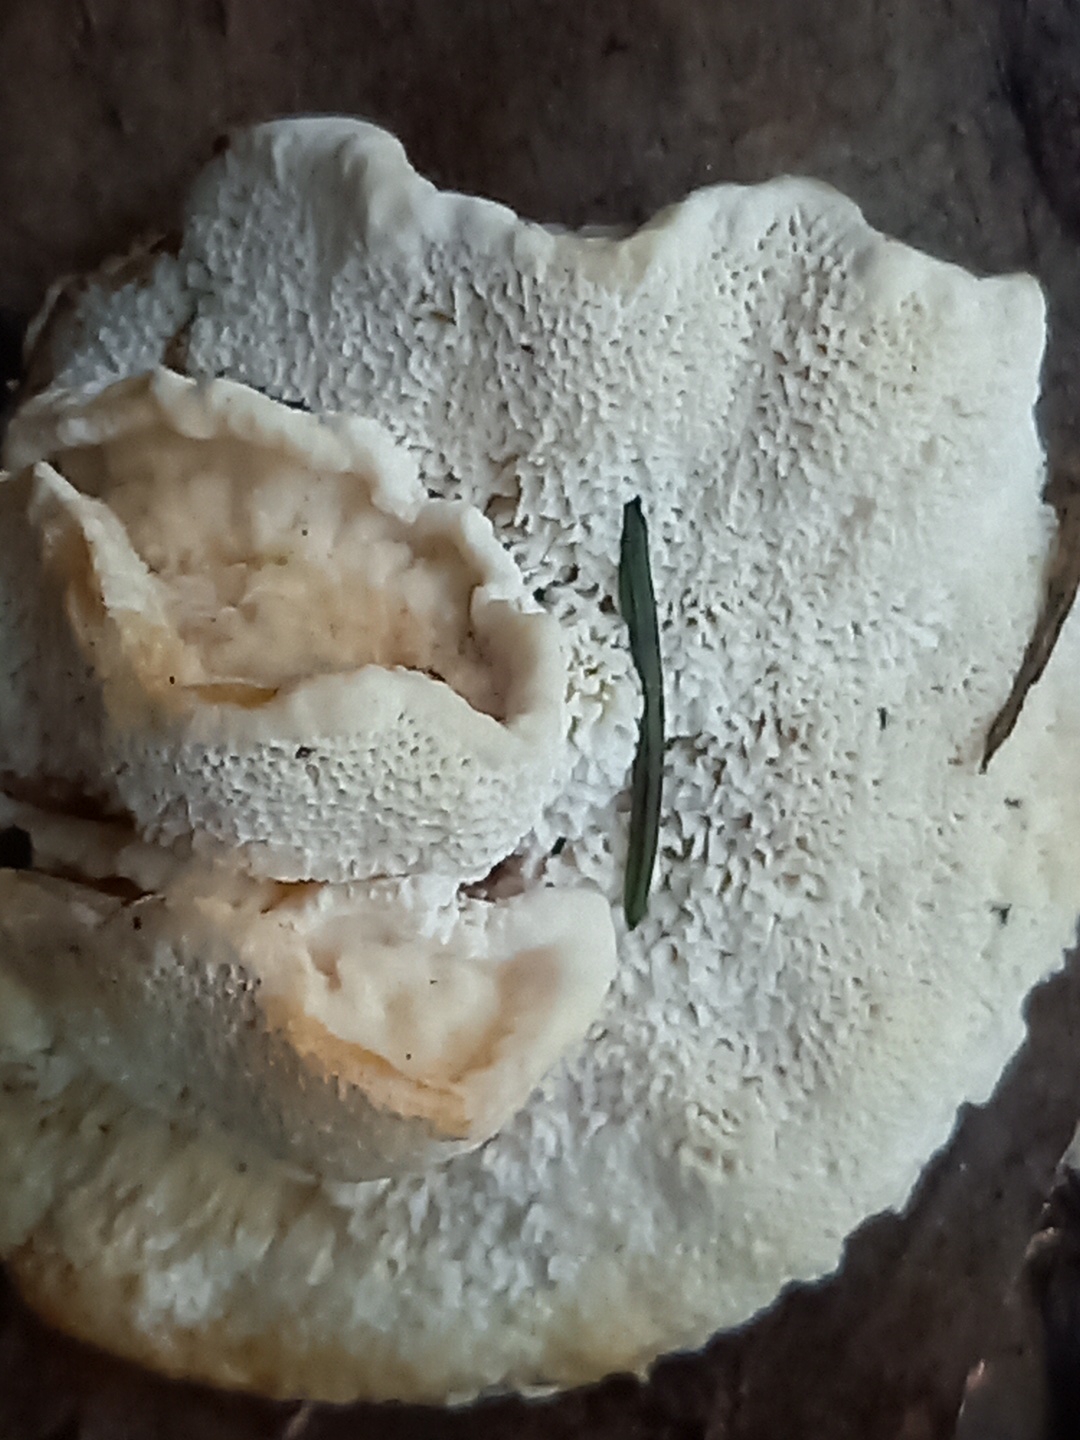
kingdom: Fungi
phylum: Basidiomycota
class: Agaricomycetes
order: Polyporales
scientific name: Polyporales
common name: poresvampordenen
